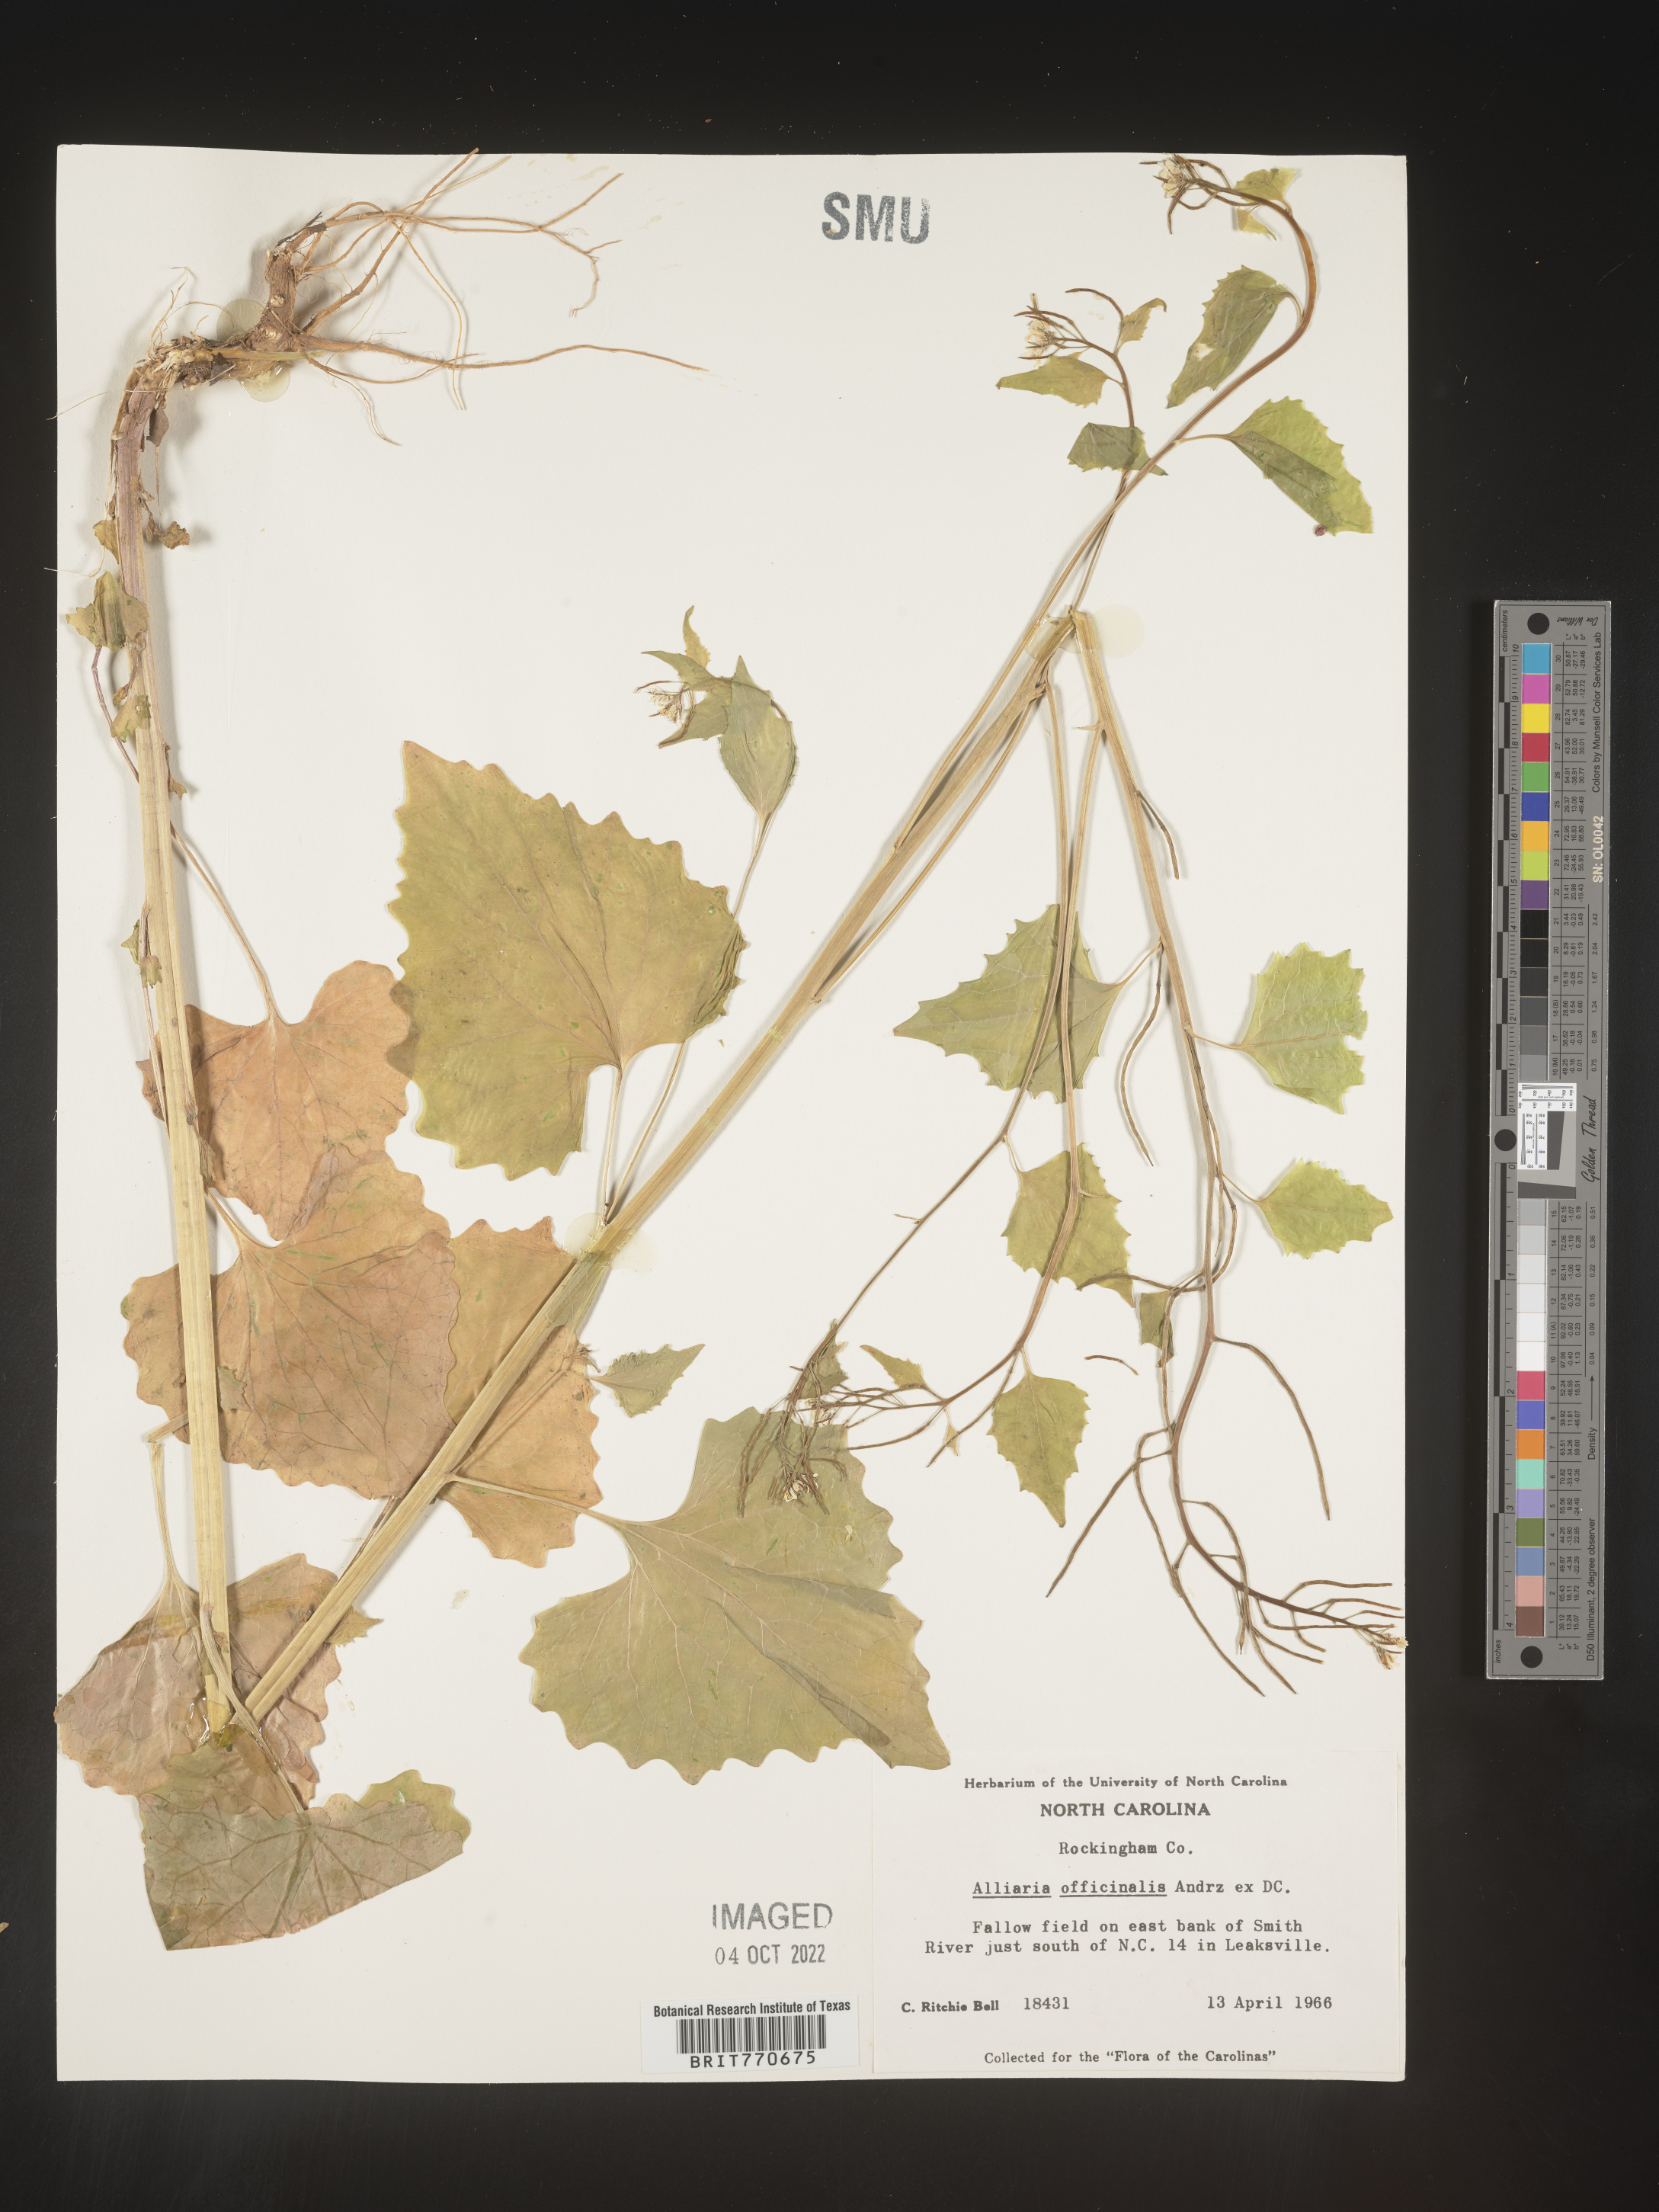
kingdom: Plantae
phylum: Tracheophyta
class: Magnoliopsida
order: Brassicales
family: Brassicaceae
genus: Alliaria
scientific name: Alliaria
